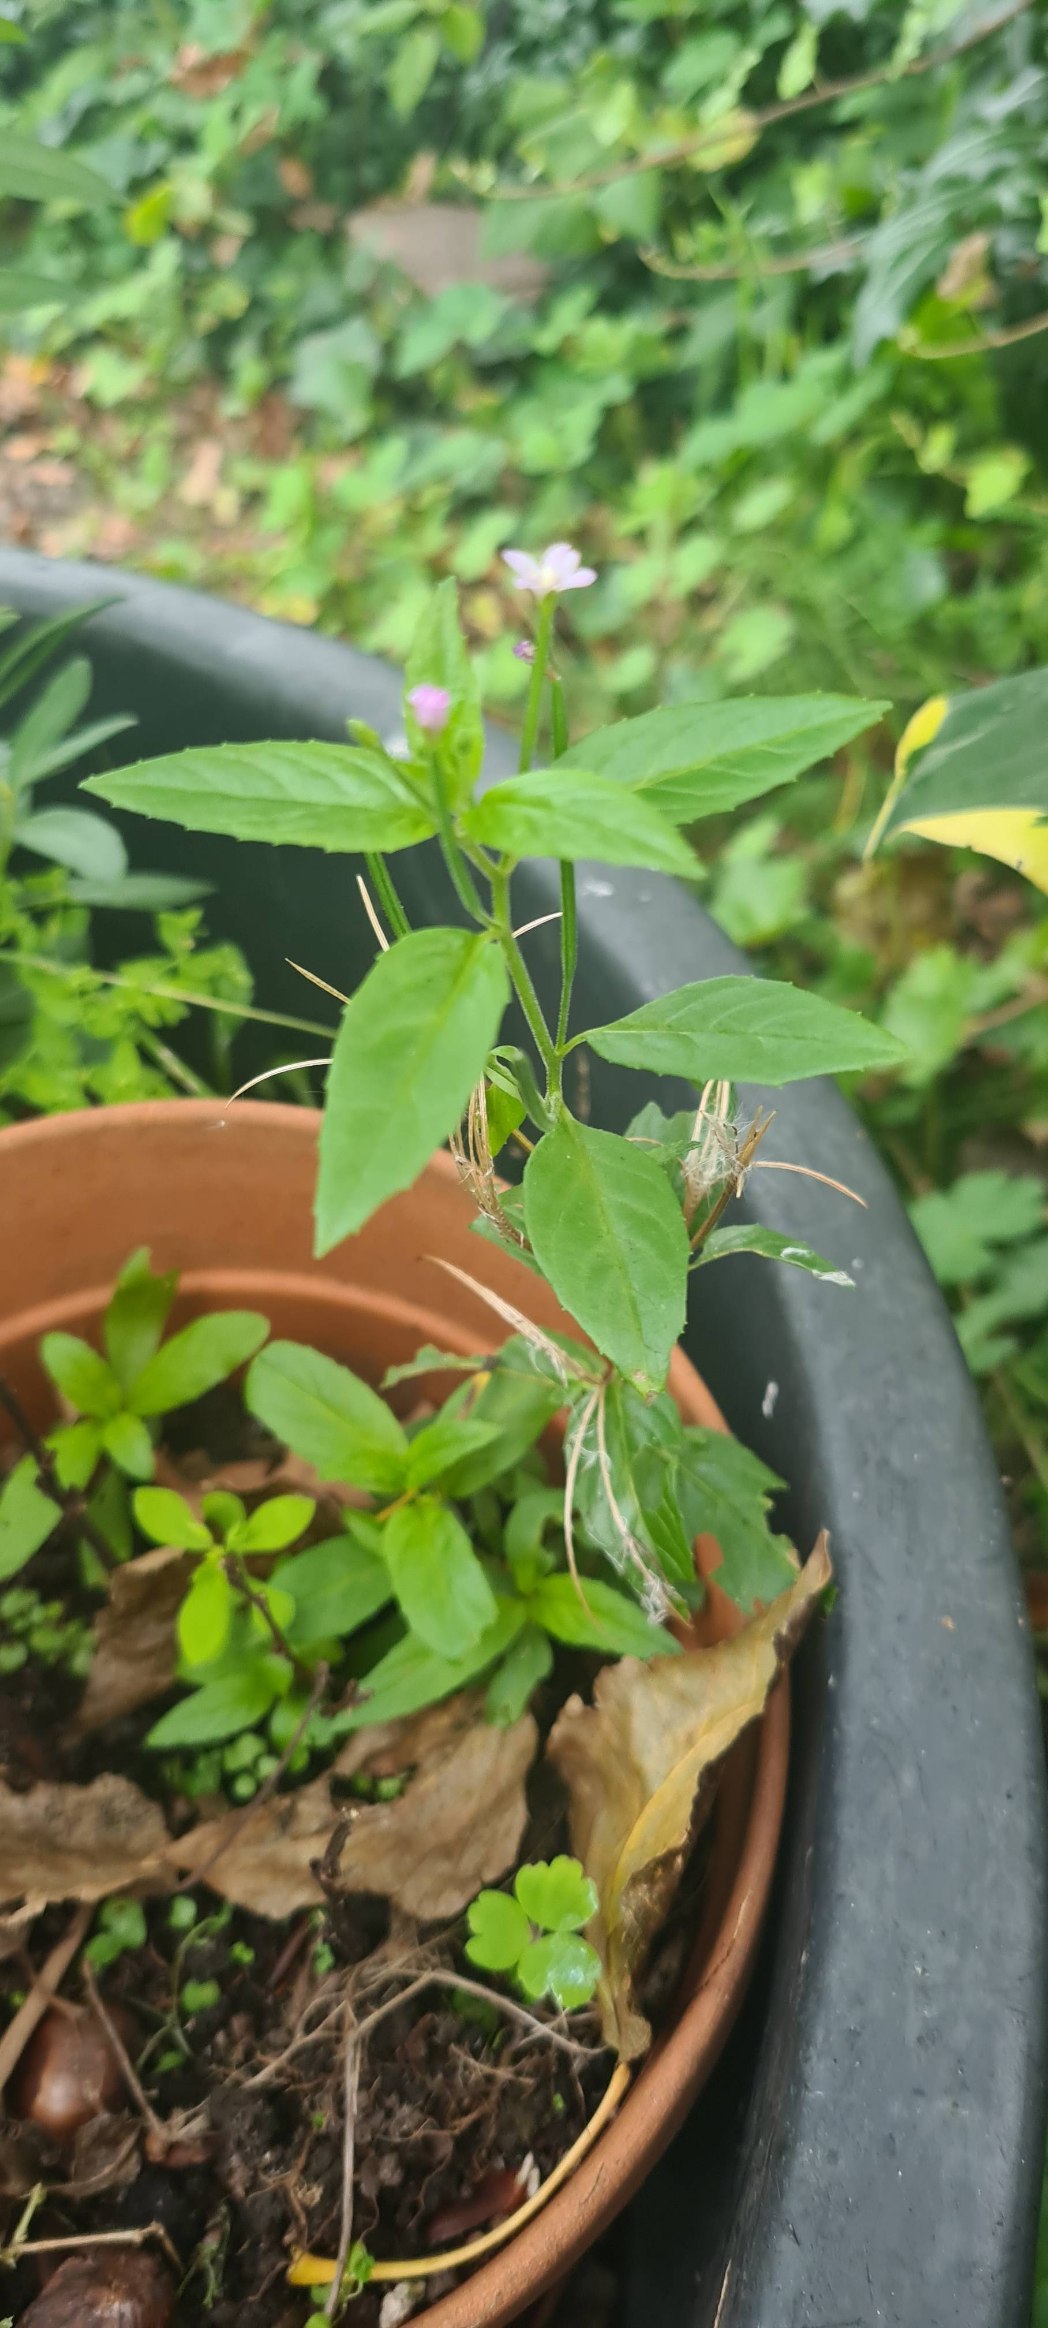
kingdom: Plantae
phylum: Tracheophyta
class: Magnoliopsida
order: Myrtales
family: Onagraceae
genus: Epilobium
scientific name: Epilobium ciliatum
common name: Alaska-dueurt
